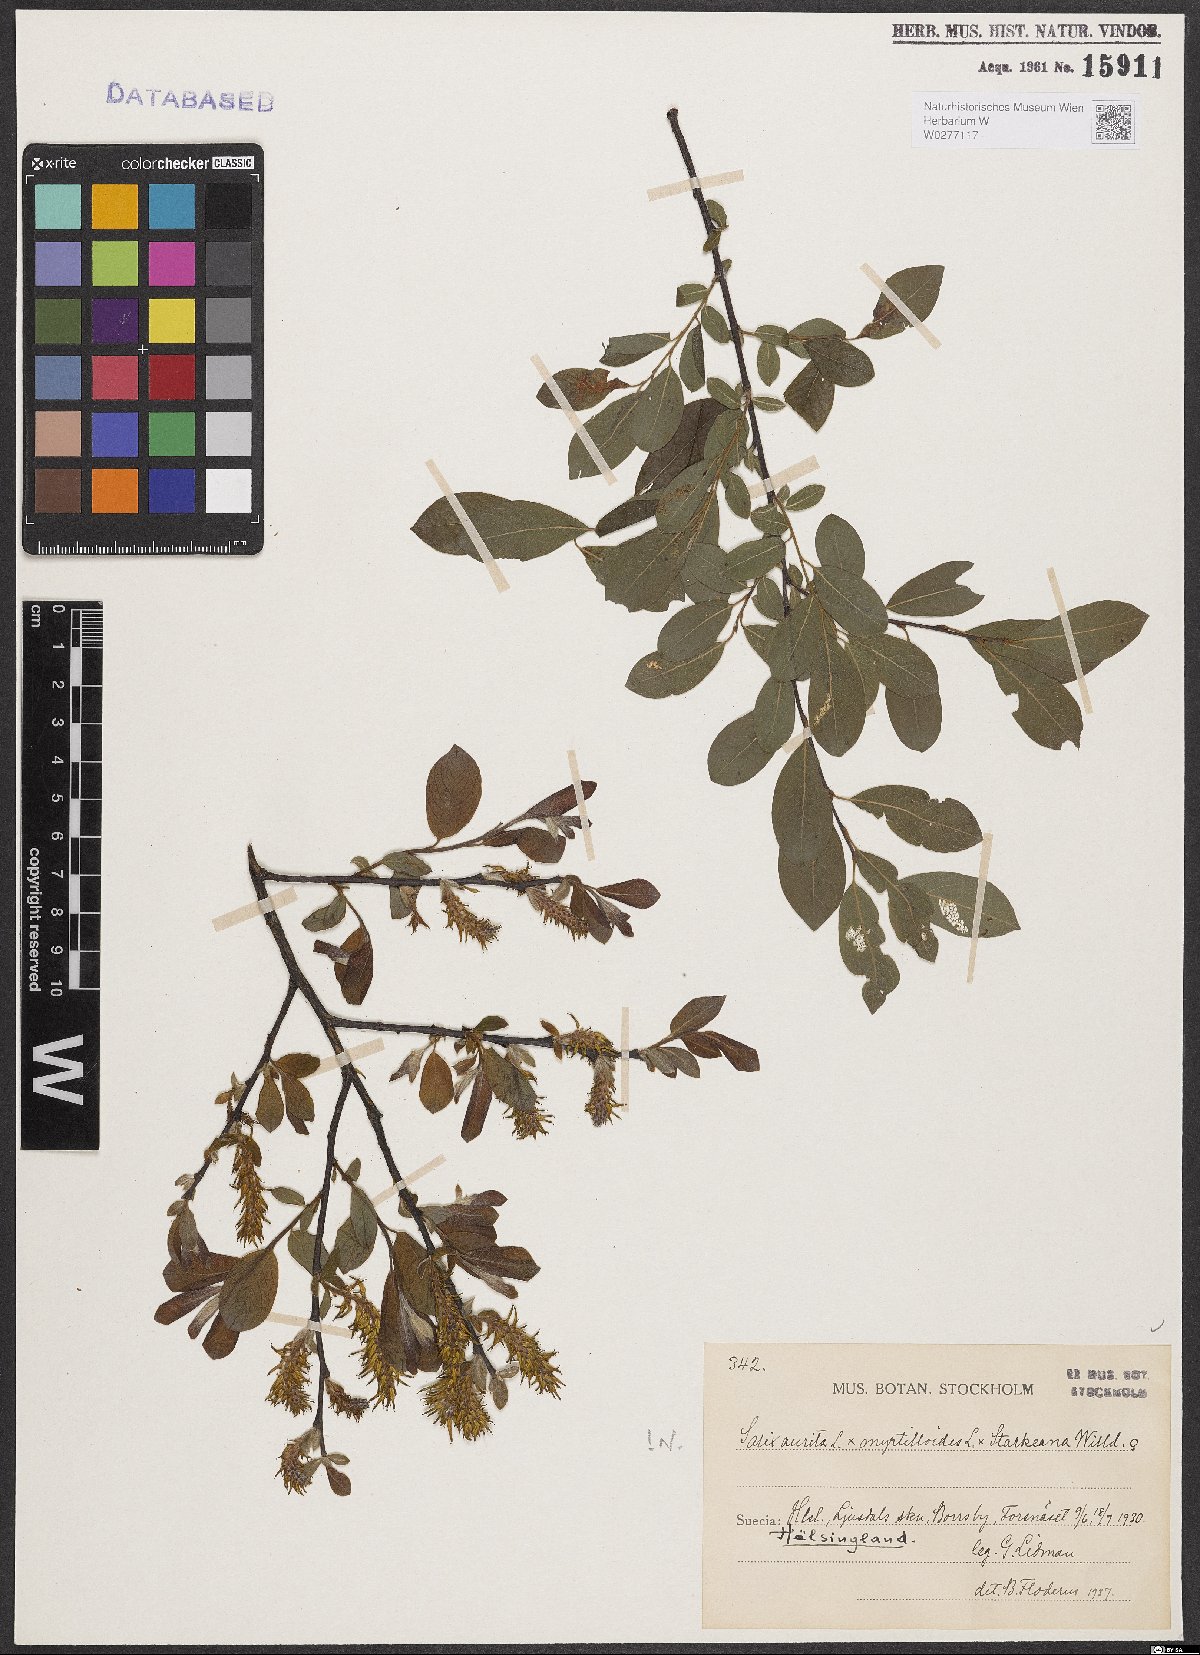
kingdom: Plantae
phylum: Tracheophyta
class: Magnoliopsida
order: Malpighiales
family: Salicaceae
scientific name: Salicaceae
